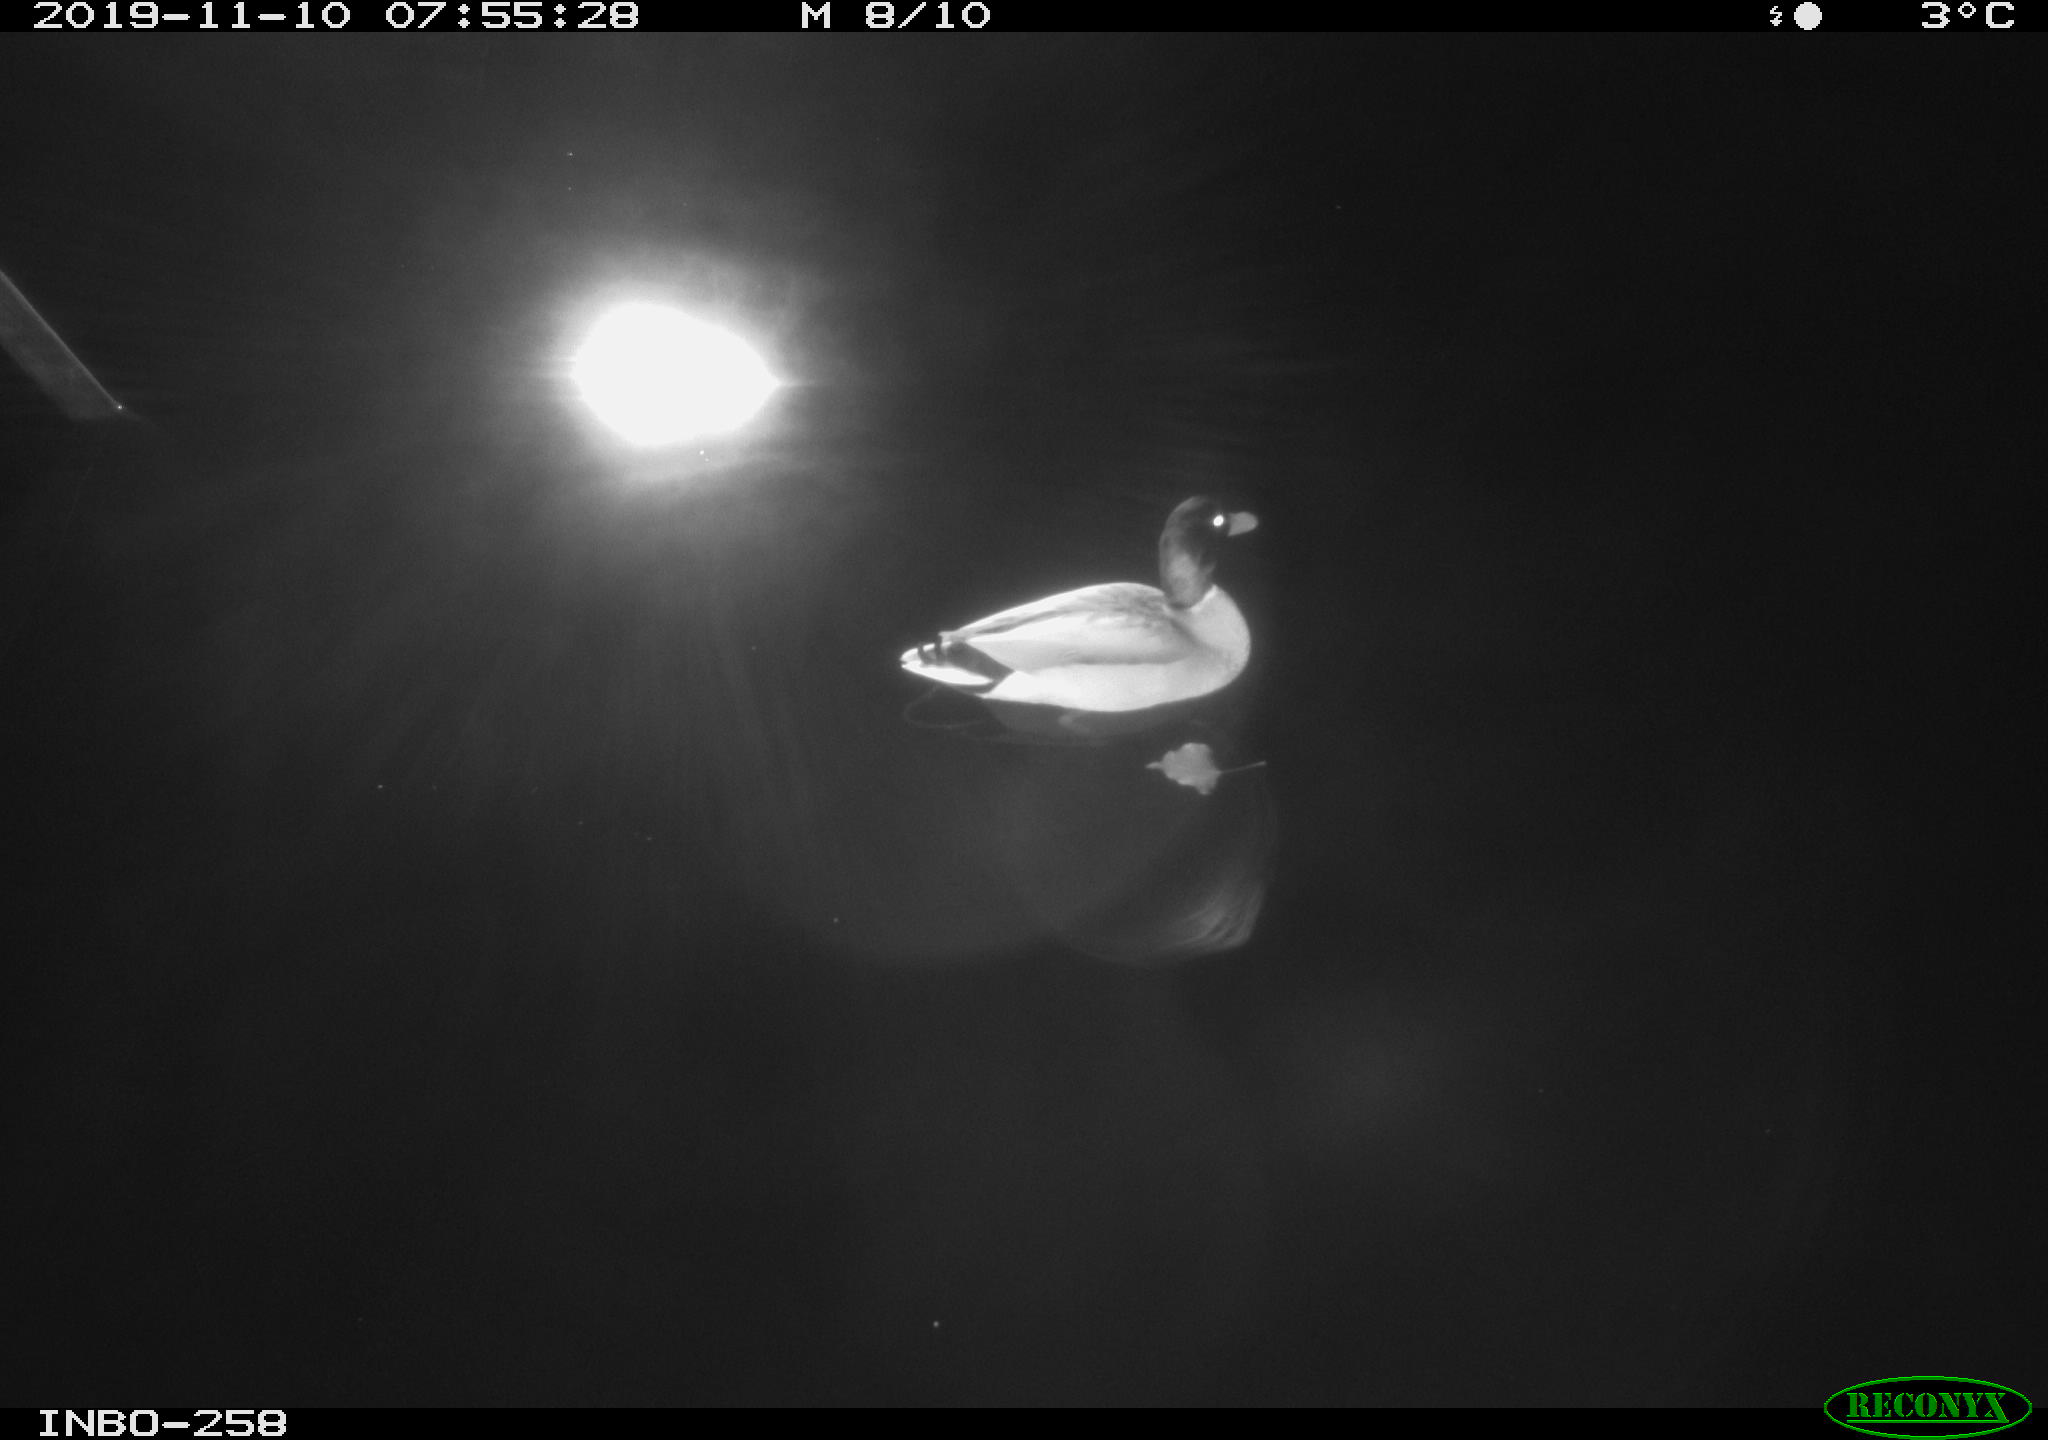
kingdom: Animalia
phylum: Chordata
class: Aves
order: Anseriformes
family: Anatidae
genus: Anas
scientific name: Anas platyrhynchos
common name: Mallard
